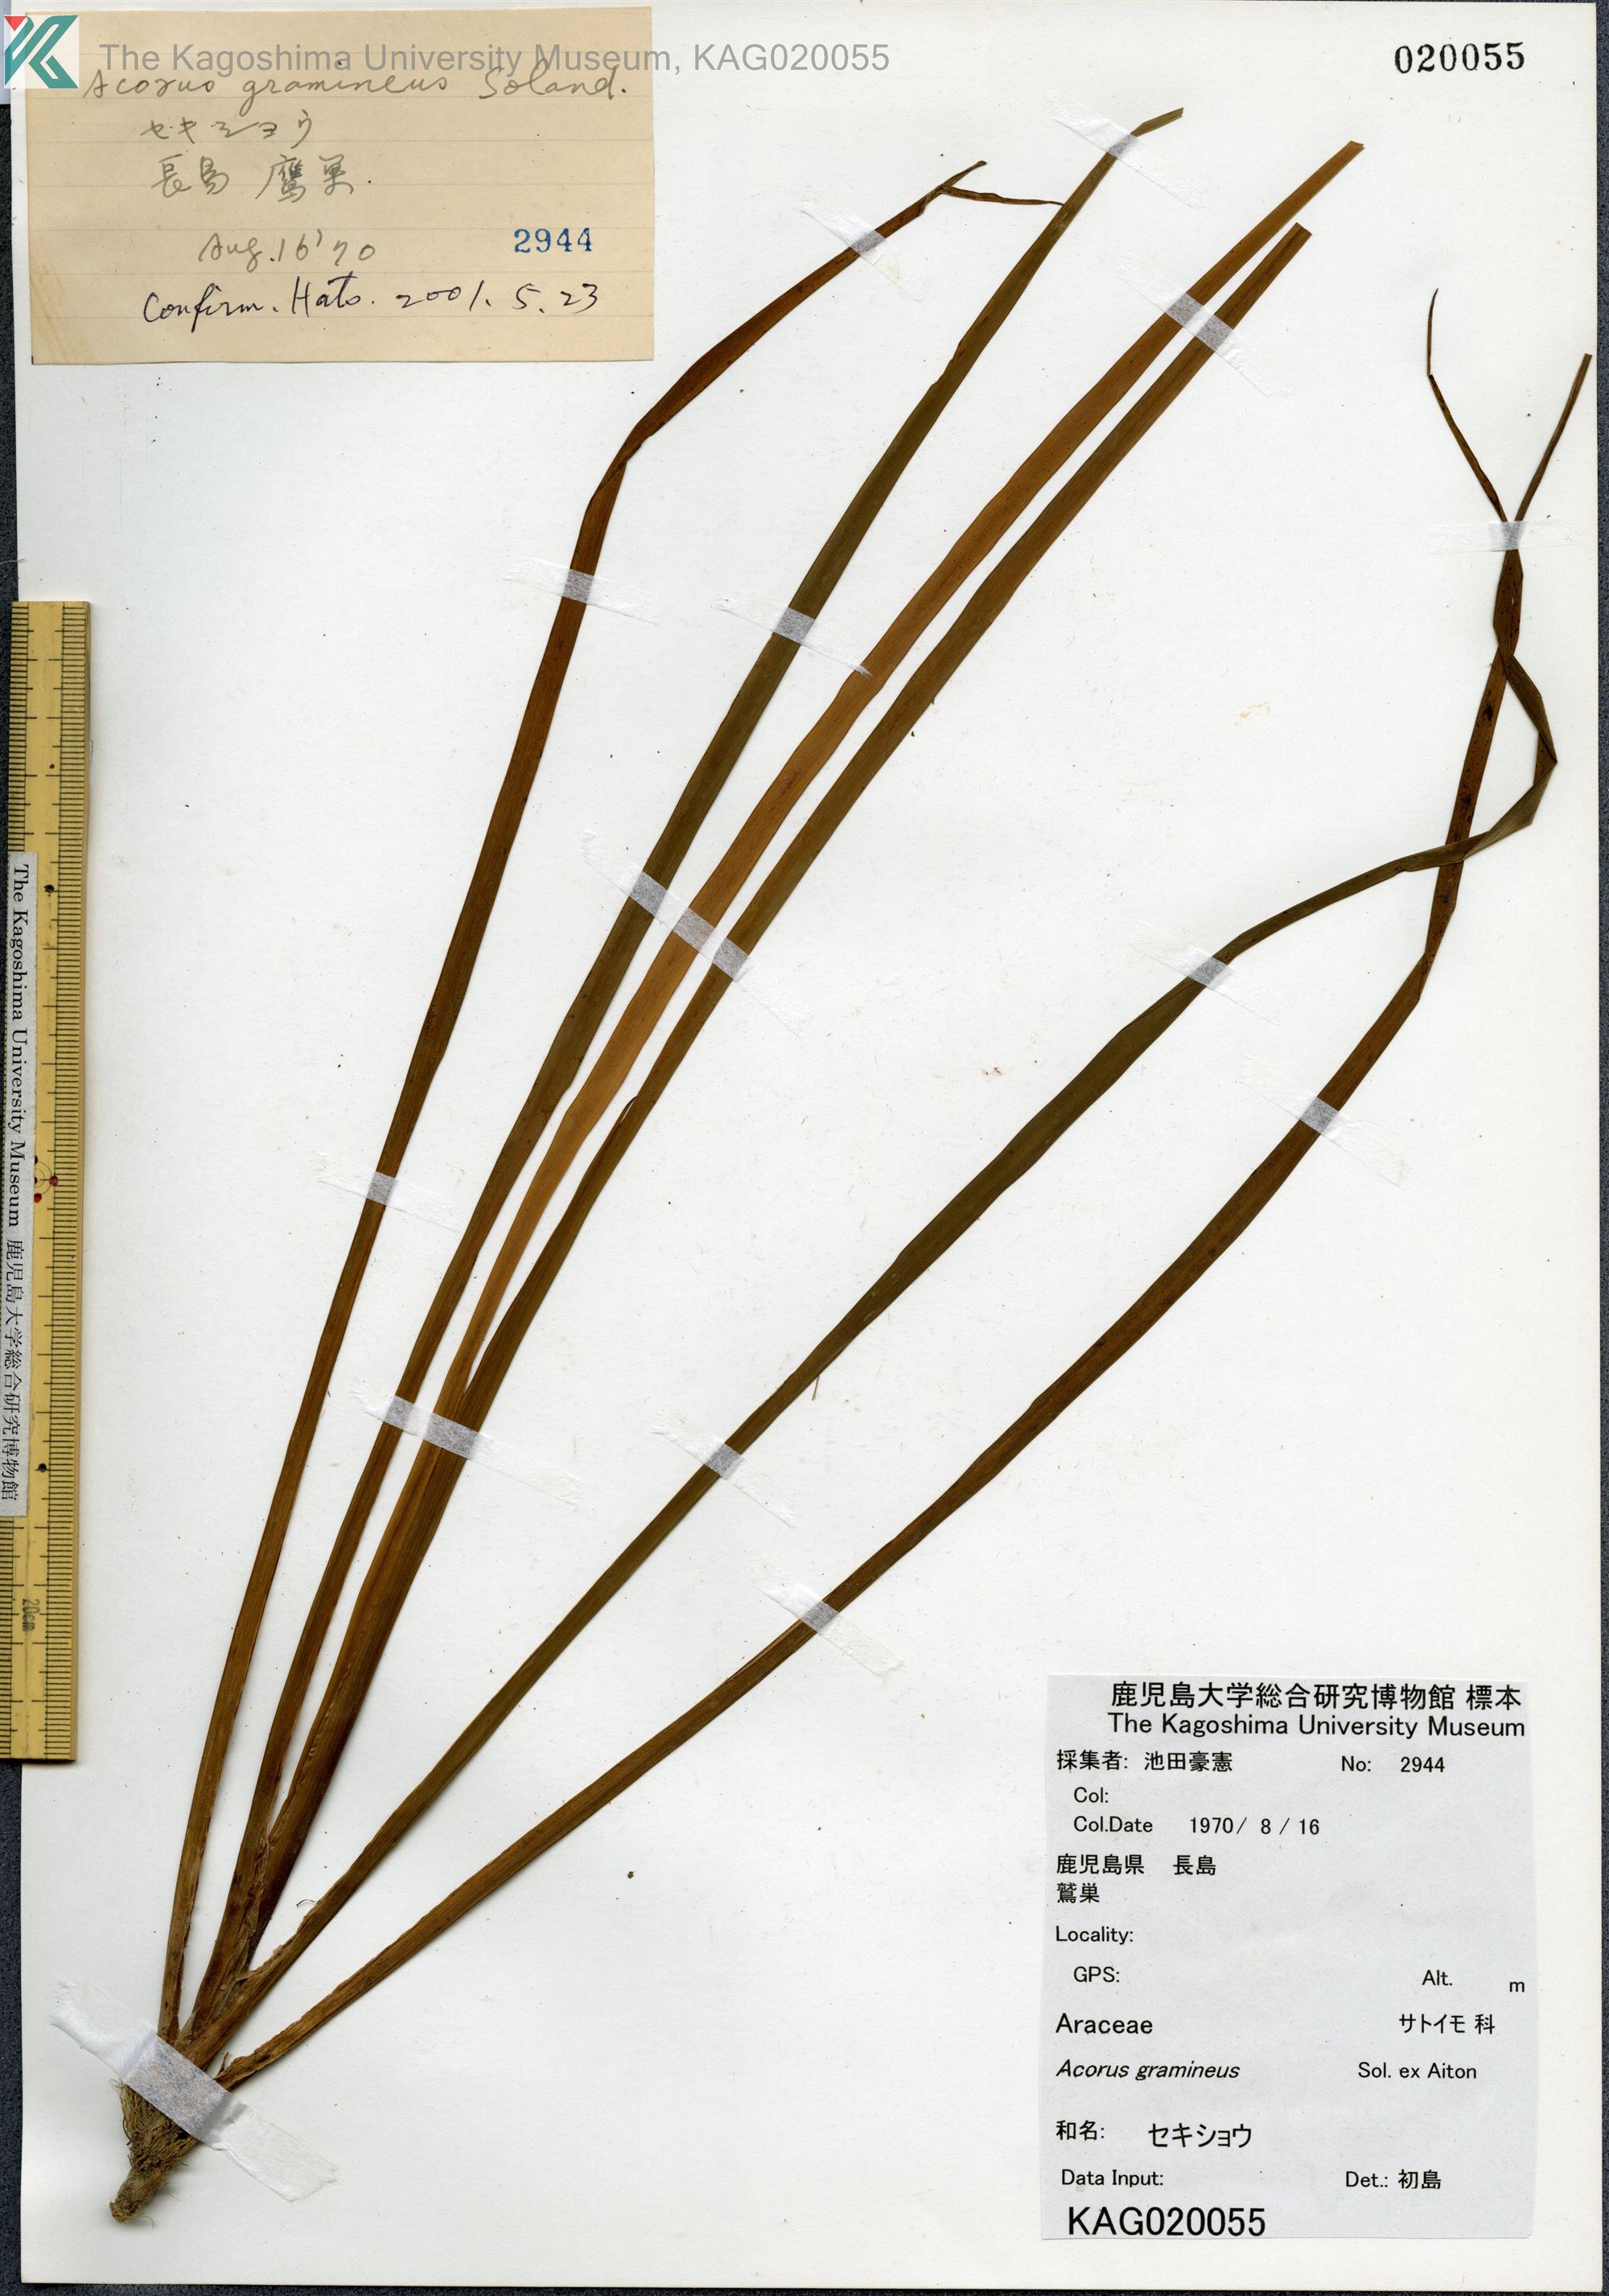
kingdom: Plantae
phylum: Tracheophyta
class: Liliopsida
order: Acorales
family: Acoraceae
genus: Acorus
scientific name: Acorus gramineus
